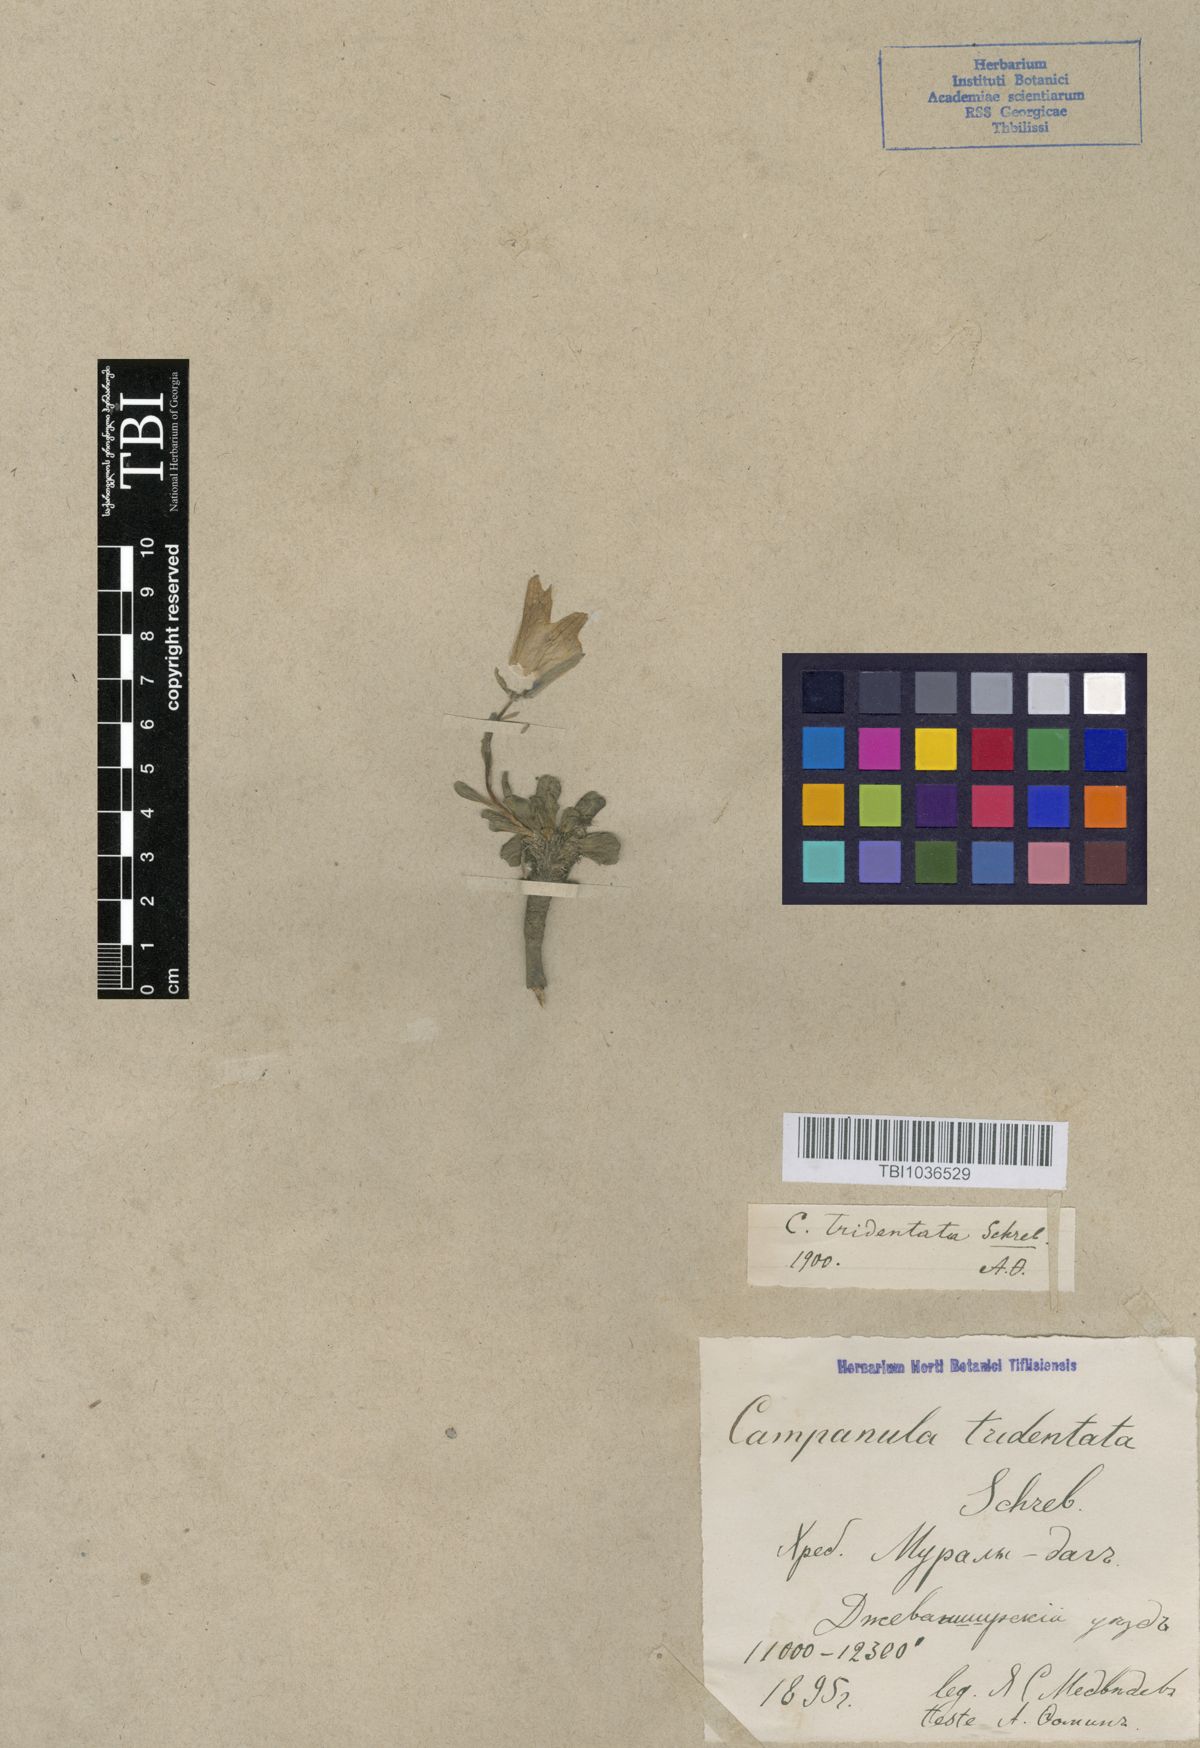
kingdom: Plantae
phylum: Tracheophyta
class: Magnoliopsida
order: Asterales
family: Campanulaceae
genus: Campanula
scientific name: Campanula tridentata
